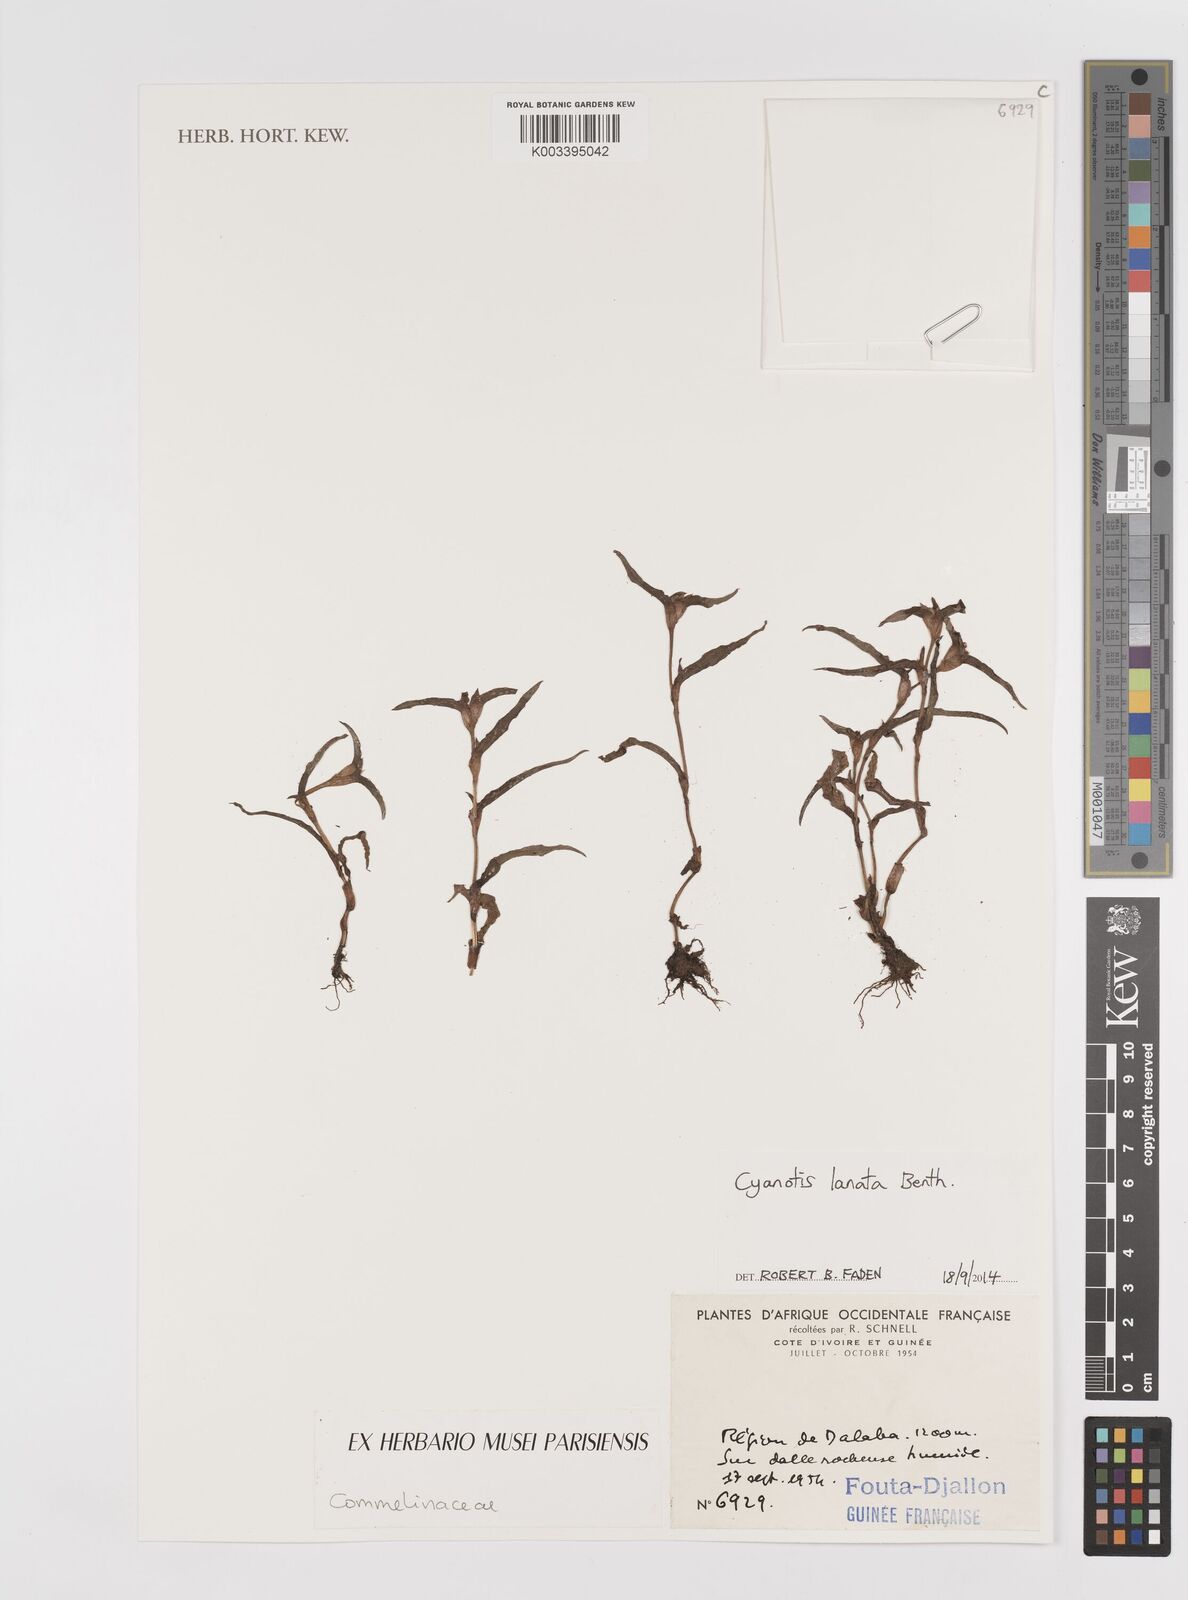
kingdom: Plantae
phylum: Tracheophyta
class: Liliopsida
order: Commelinales
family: Commelinaceae
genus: Cyanotis
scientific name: Cyanotis lanata
